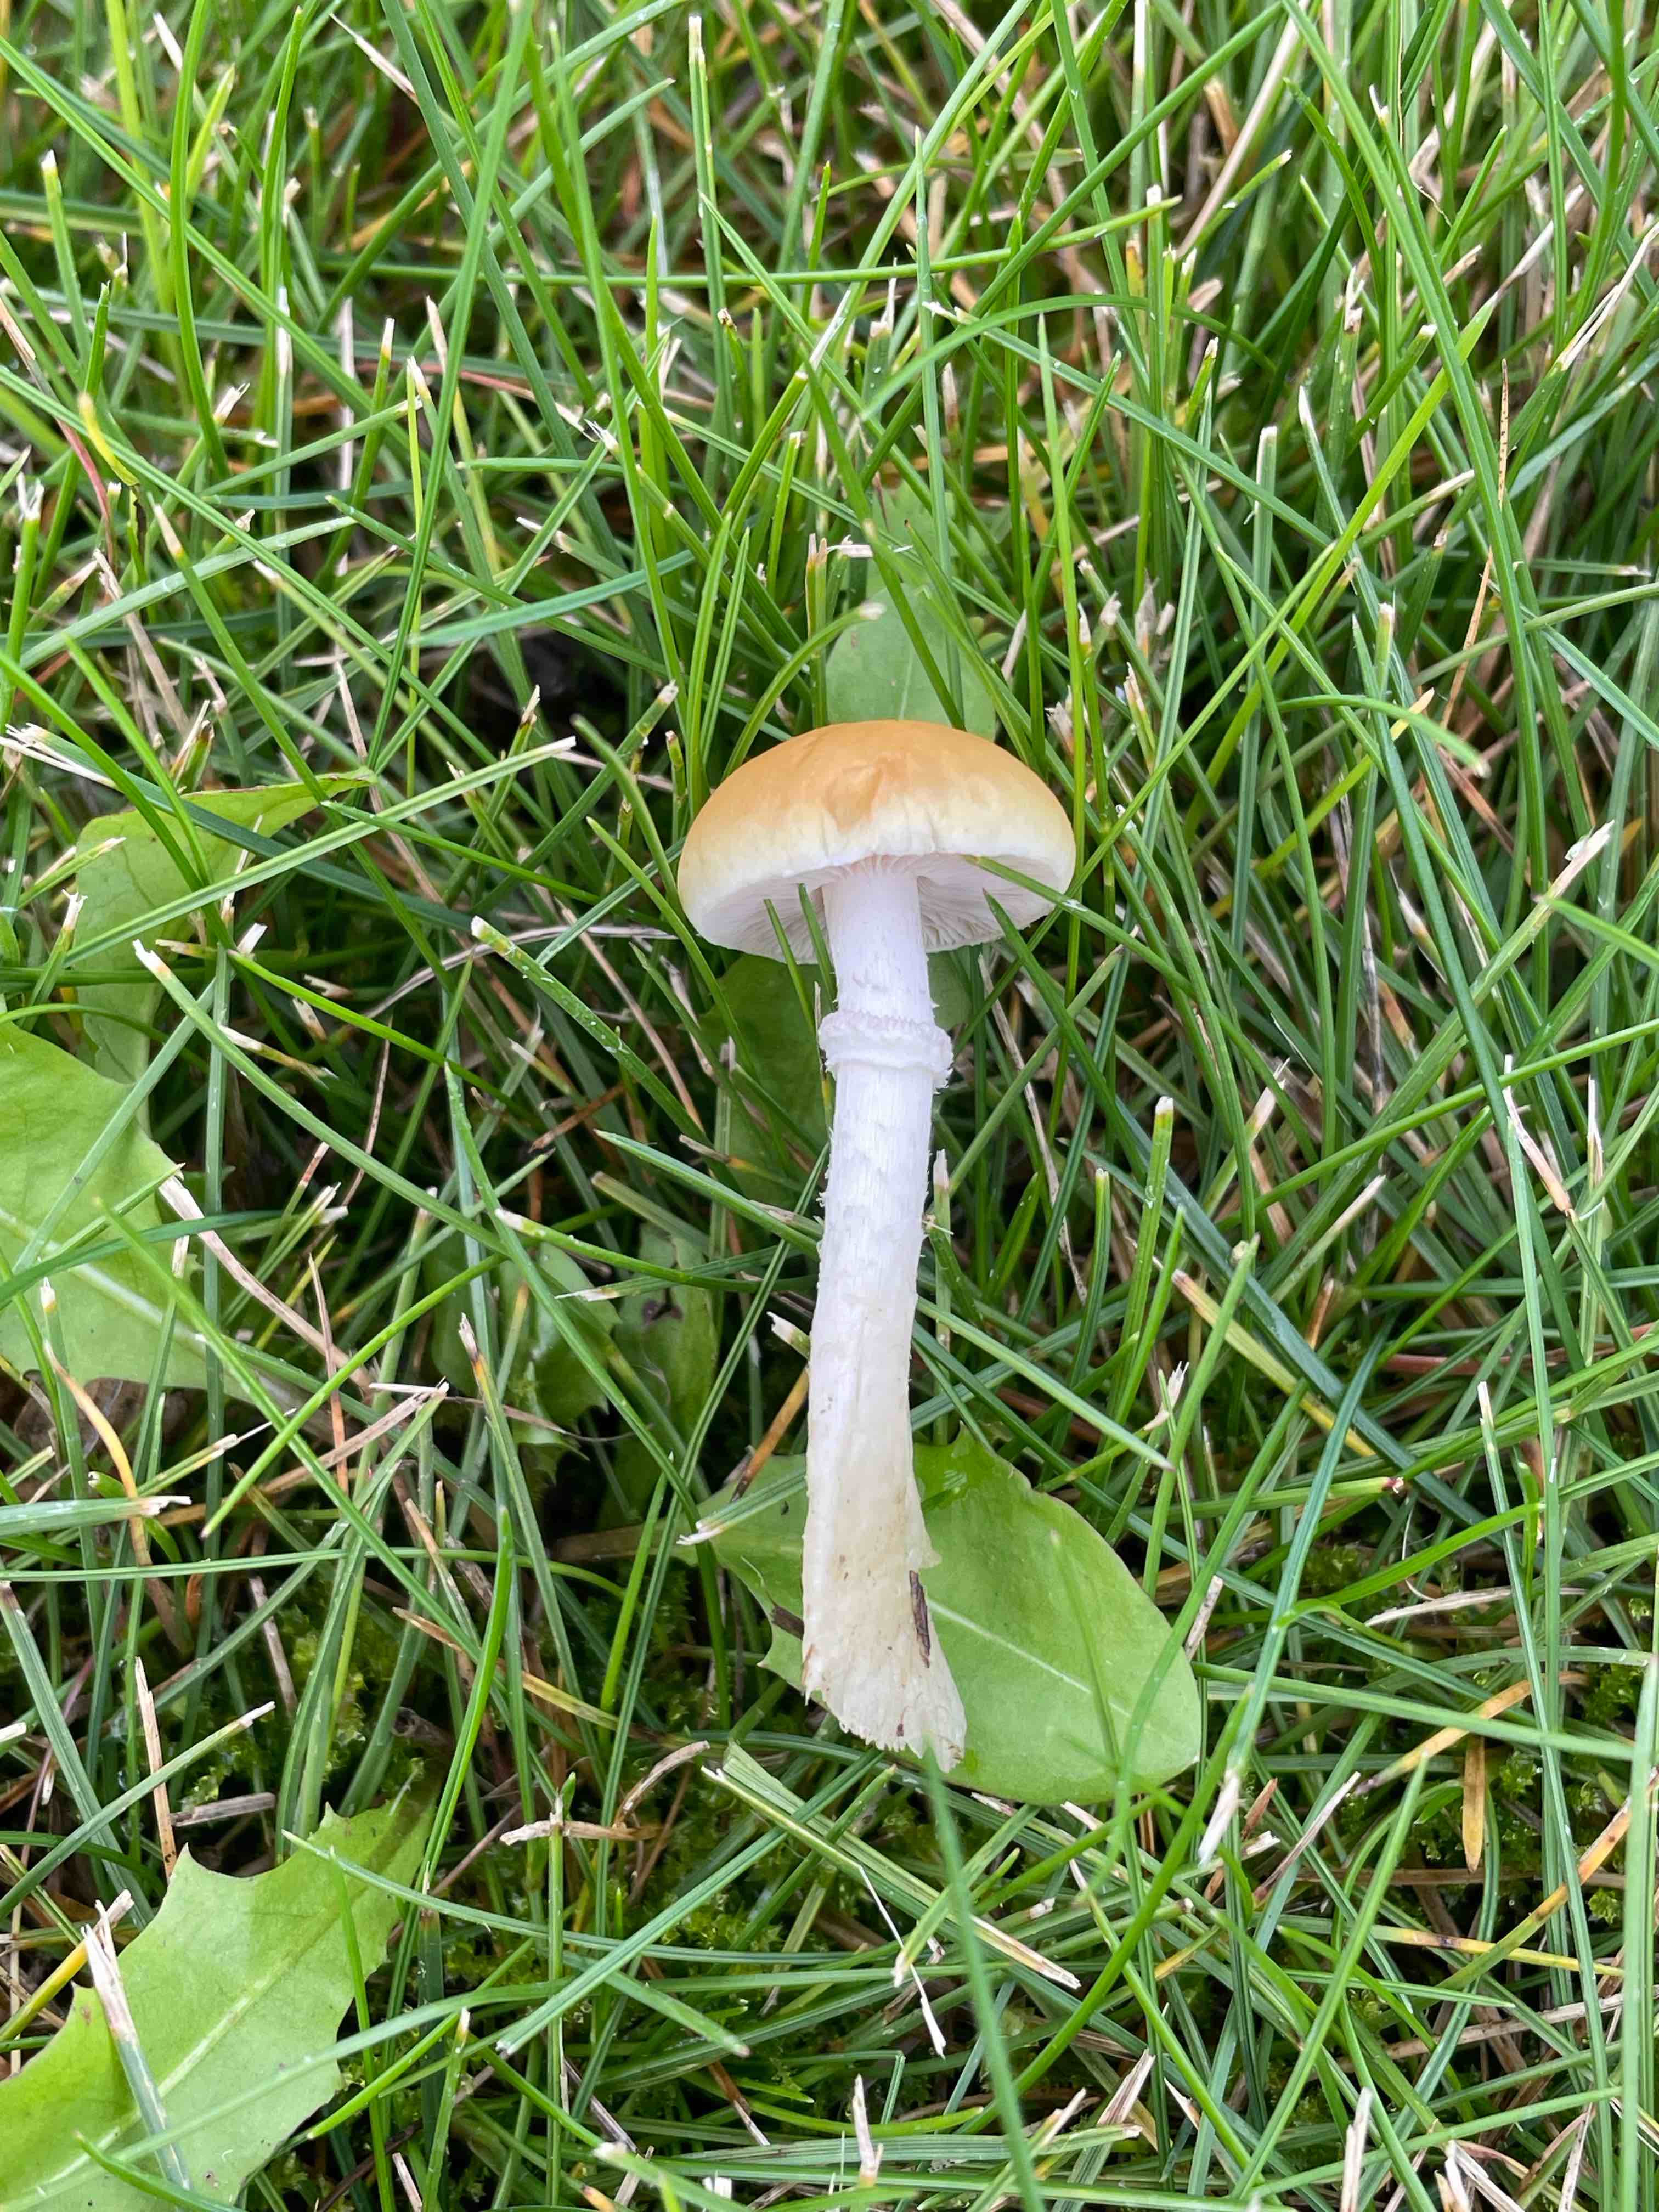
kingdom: Fungi
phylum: Basidiomycota
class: Agaricomycetes
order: Agaricales
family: Hymenogastraceae
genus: Psilocybe
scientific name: Psilocybe coronilla
